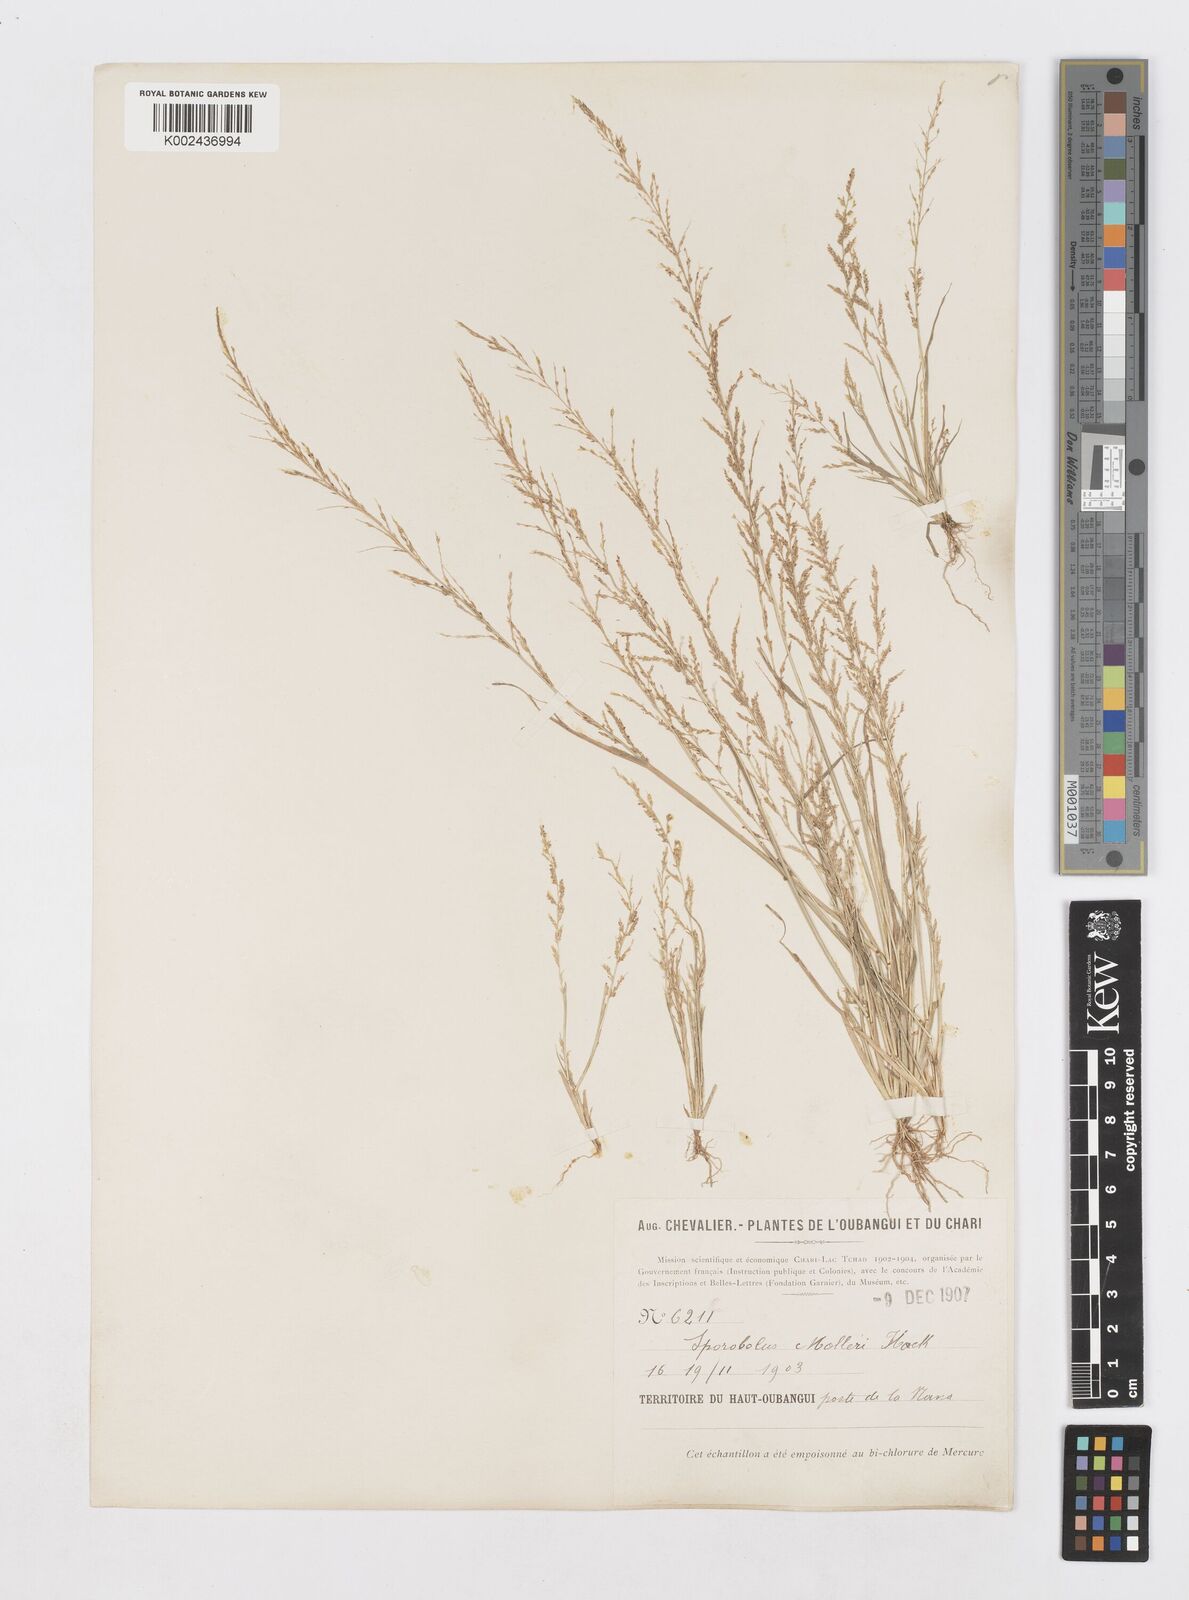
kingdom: Plantae
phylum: Tracheophyta
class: Liliopsida
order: Poales
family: Poaceae
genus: Sporobolus
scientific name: Sporobolus molleri
